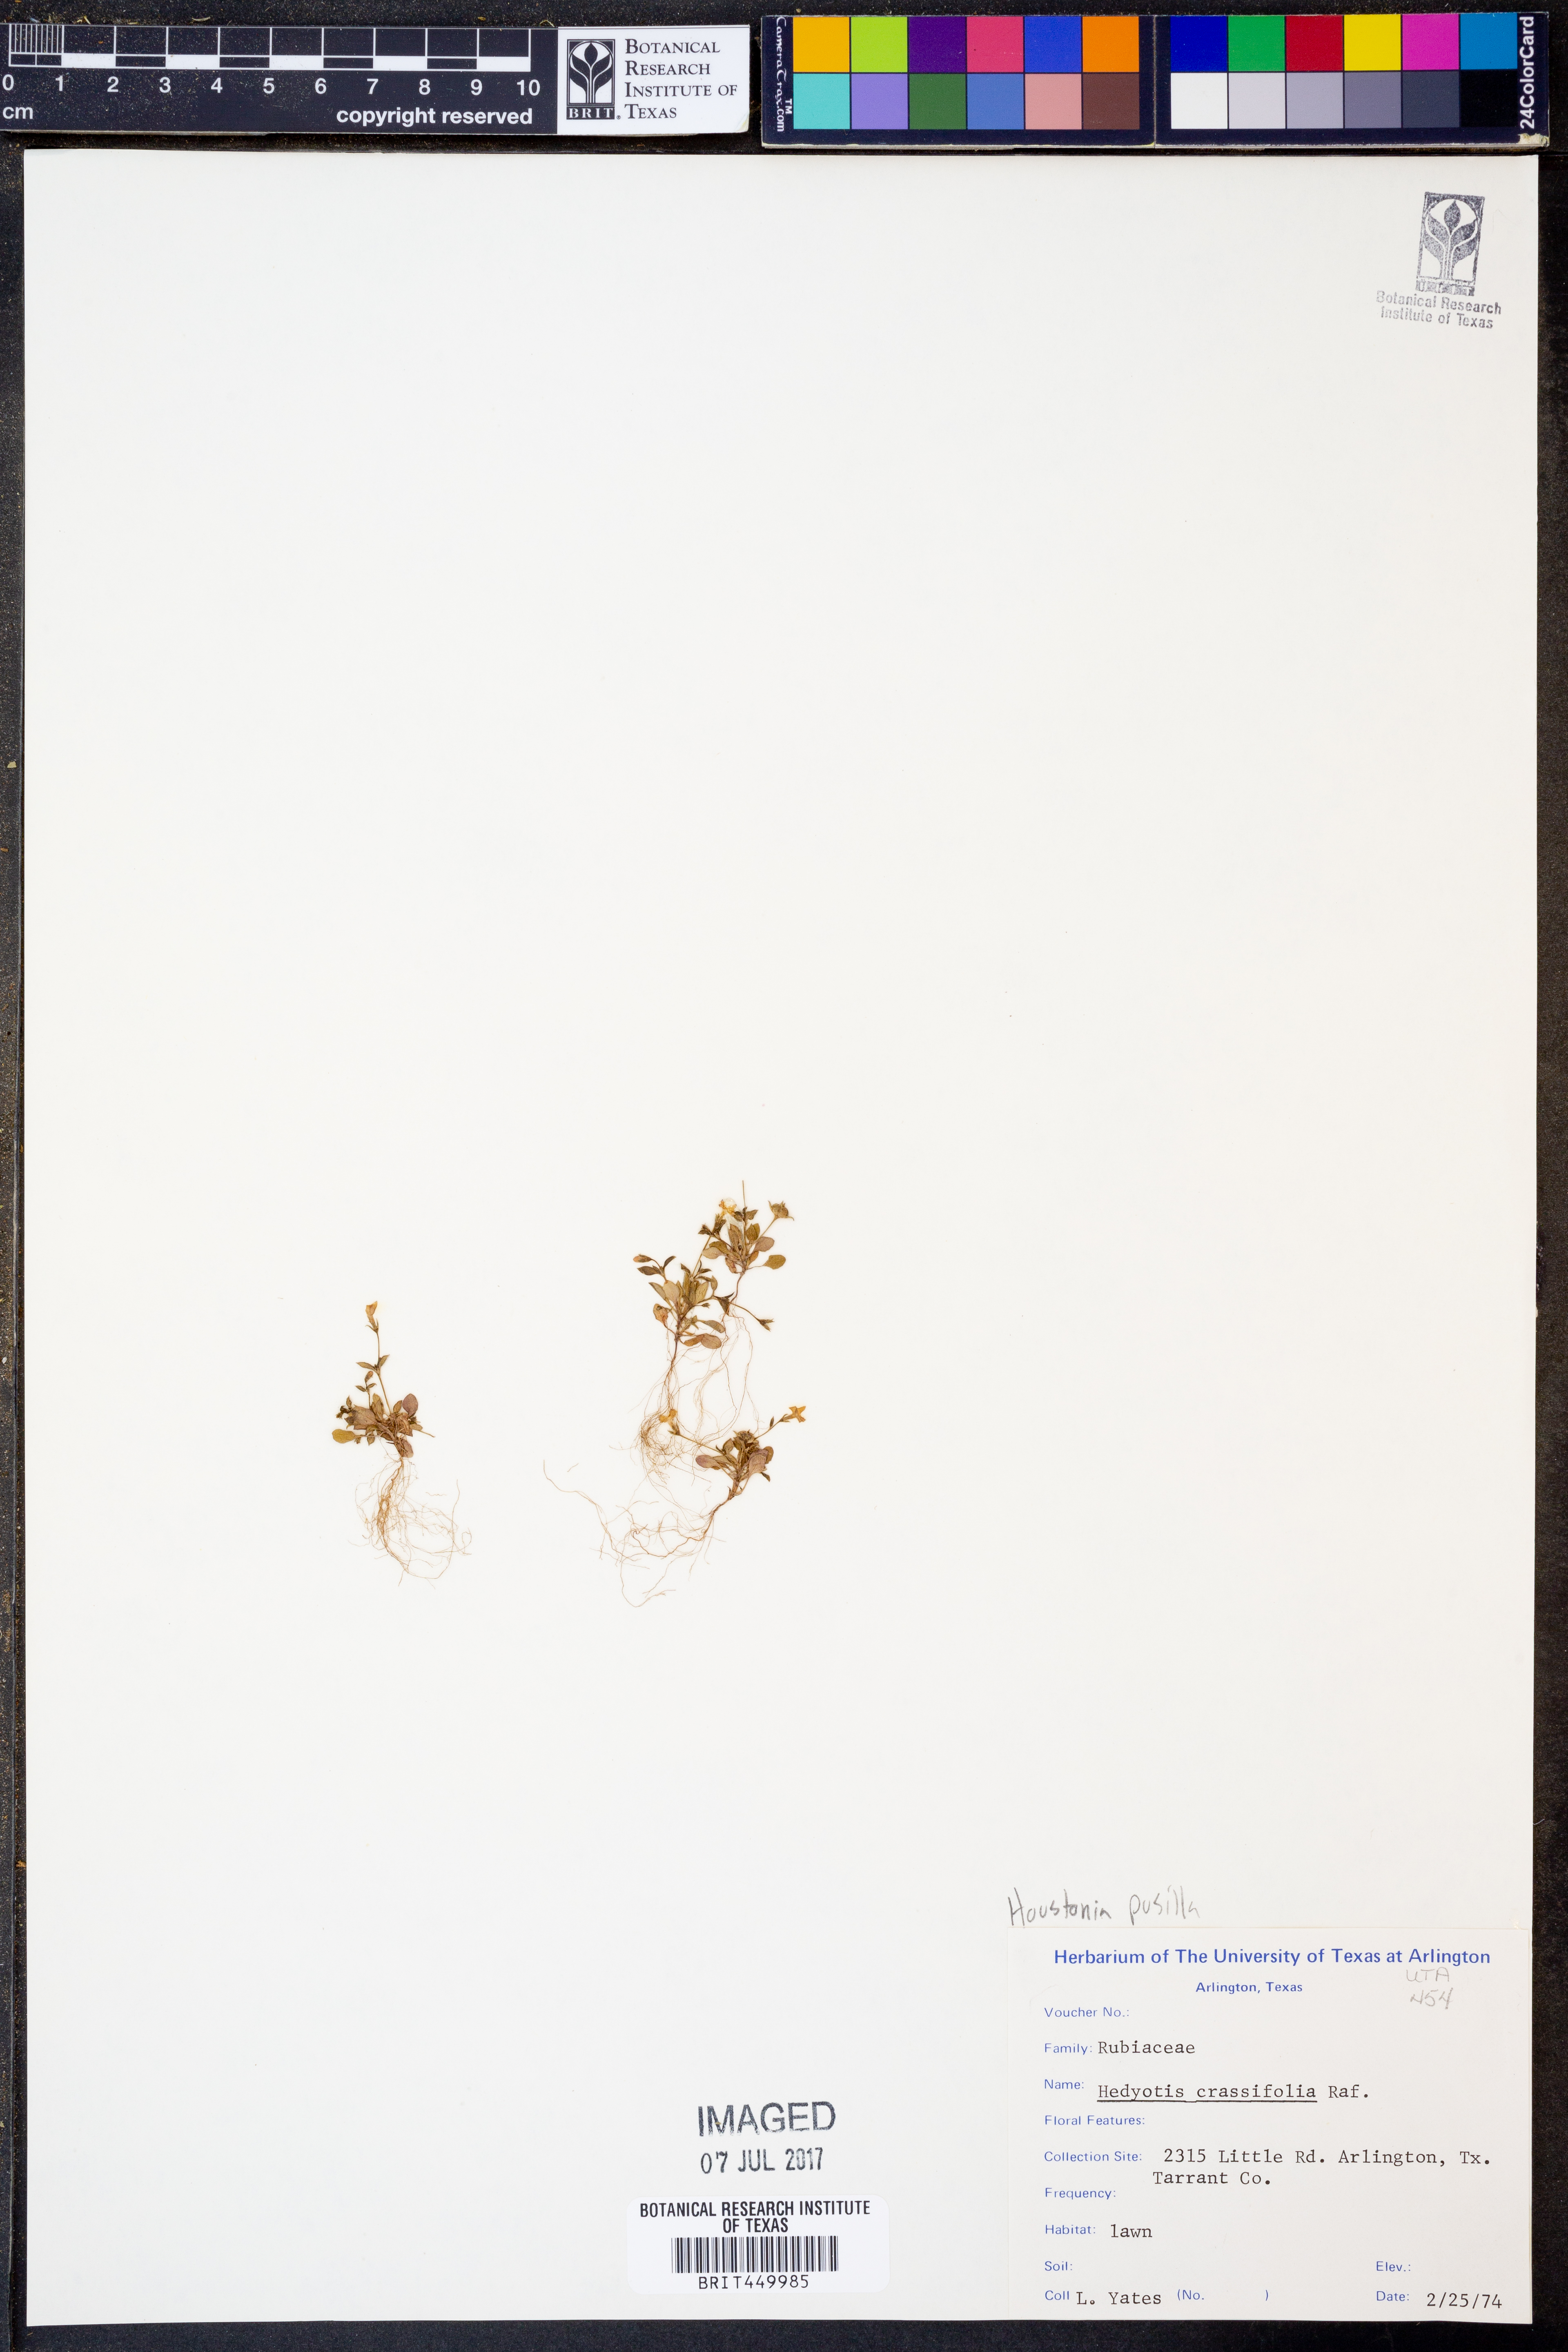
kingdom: Plantae
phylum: Tracheophyta
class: Magnoliopsida
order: Gentianales
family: Rubiaceae
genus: Houstonia
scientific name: Houstonia pusilla
